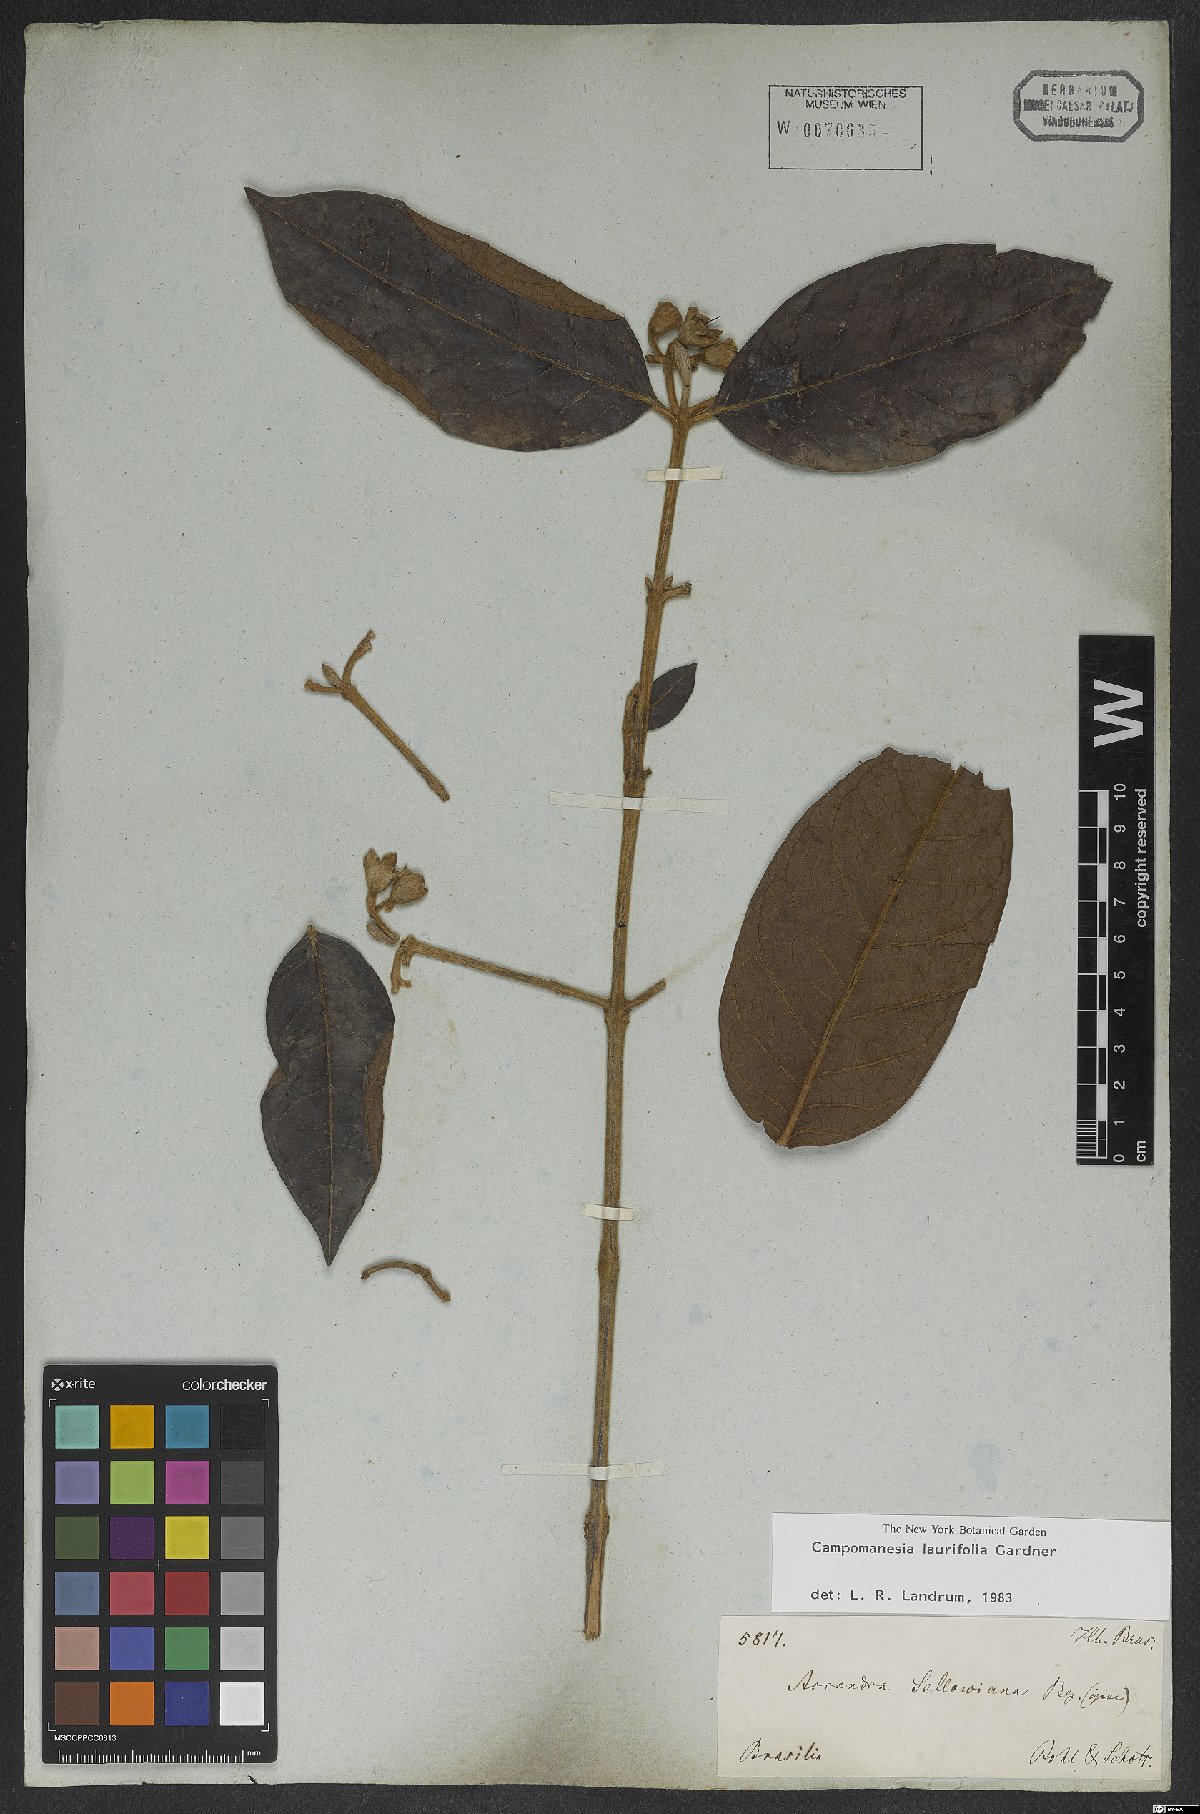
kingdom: Plantae
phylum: Tracheophyta
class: Magnoliopsida
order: Myrtales
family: Myrtaceae
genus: Campomanesia
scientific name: Campomanesia laurifolia
